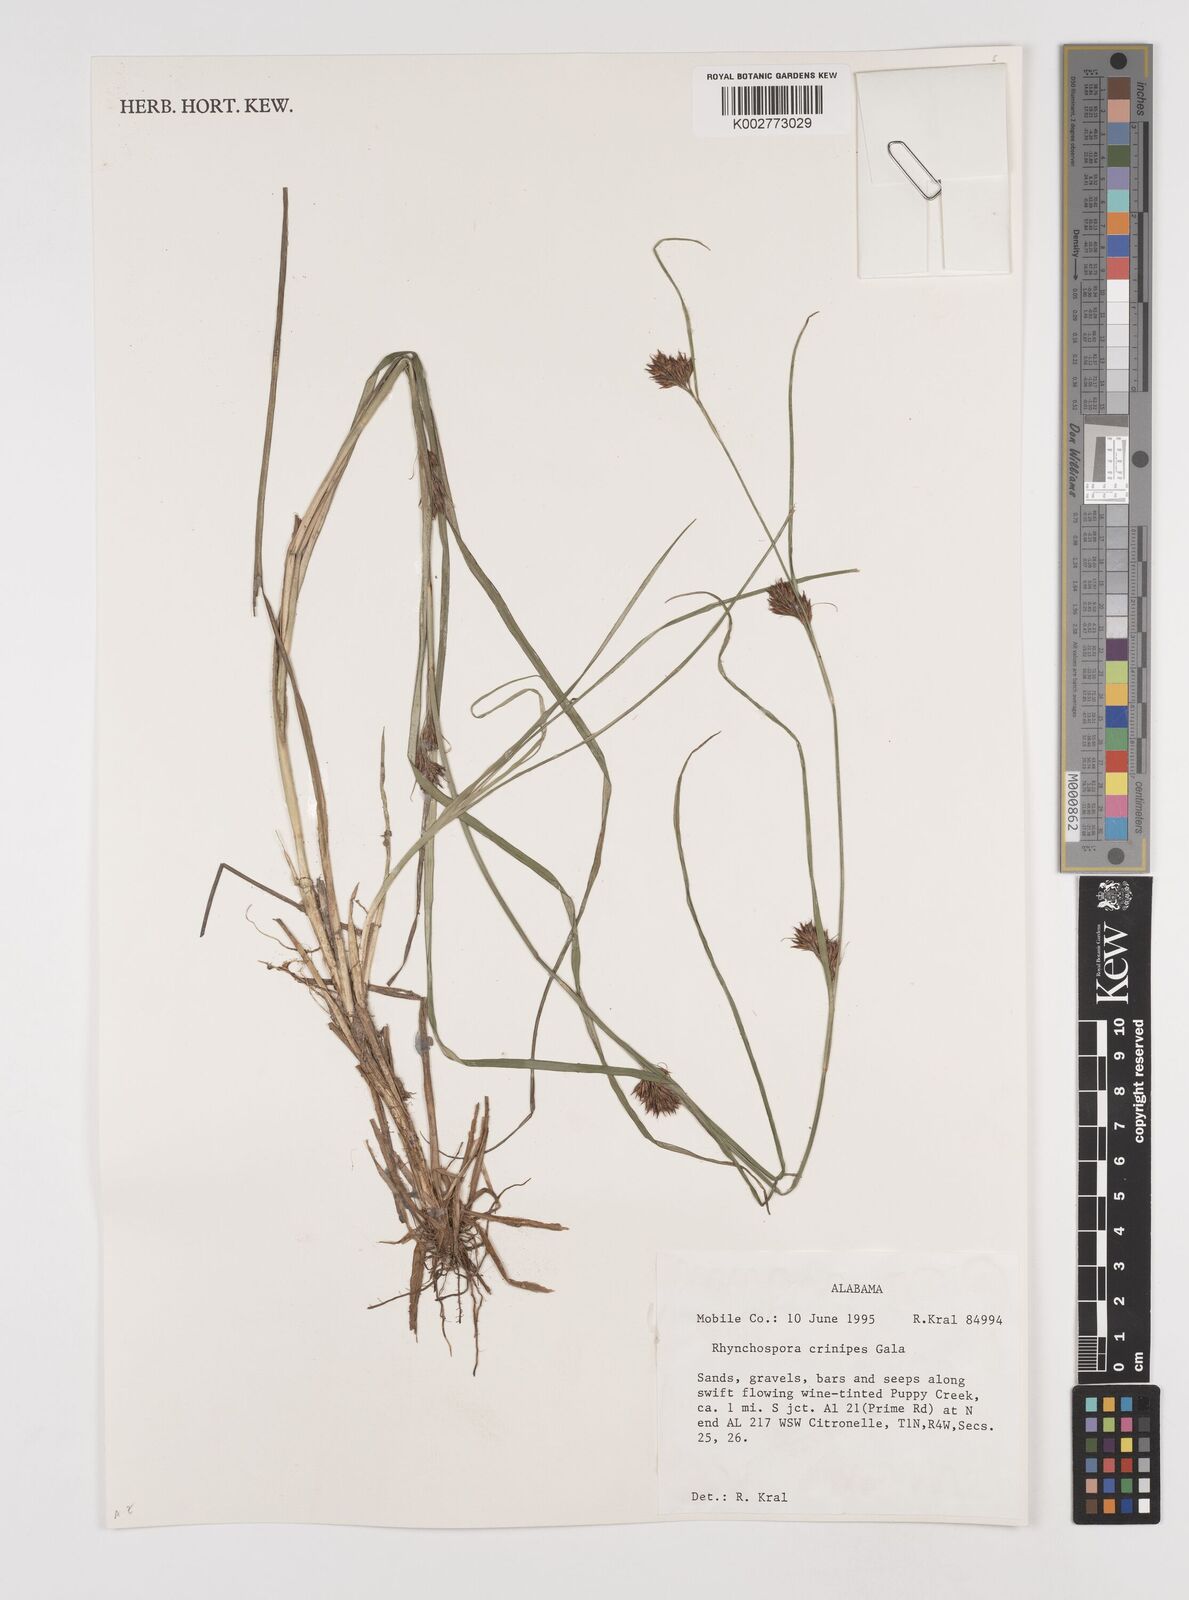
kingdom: Plantae
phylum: Tracheophyta
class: Liliopsida
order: Poales
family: Cyperaceae
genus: Rhynchospora
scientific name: Rhynchospora crinipes
